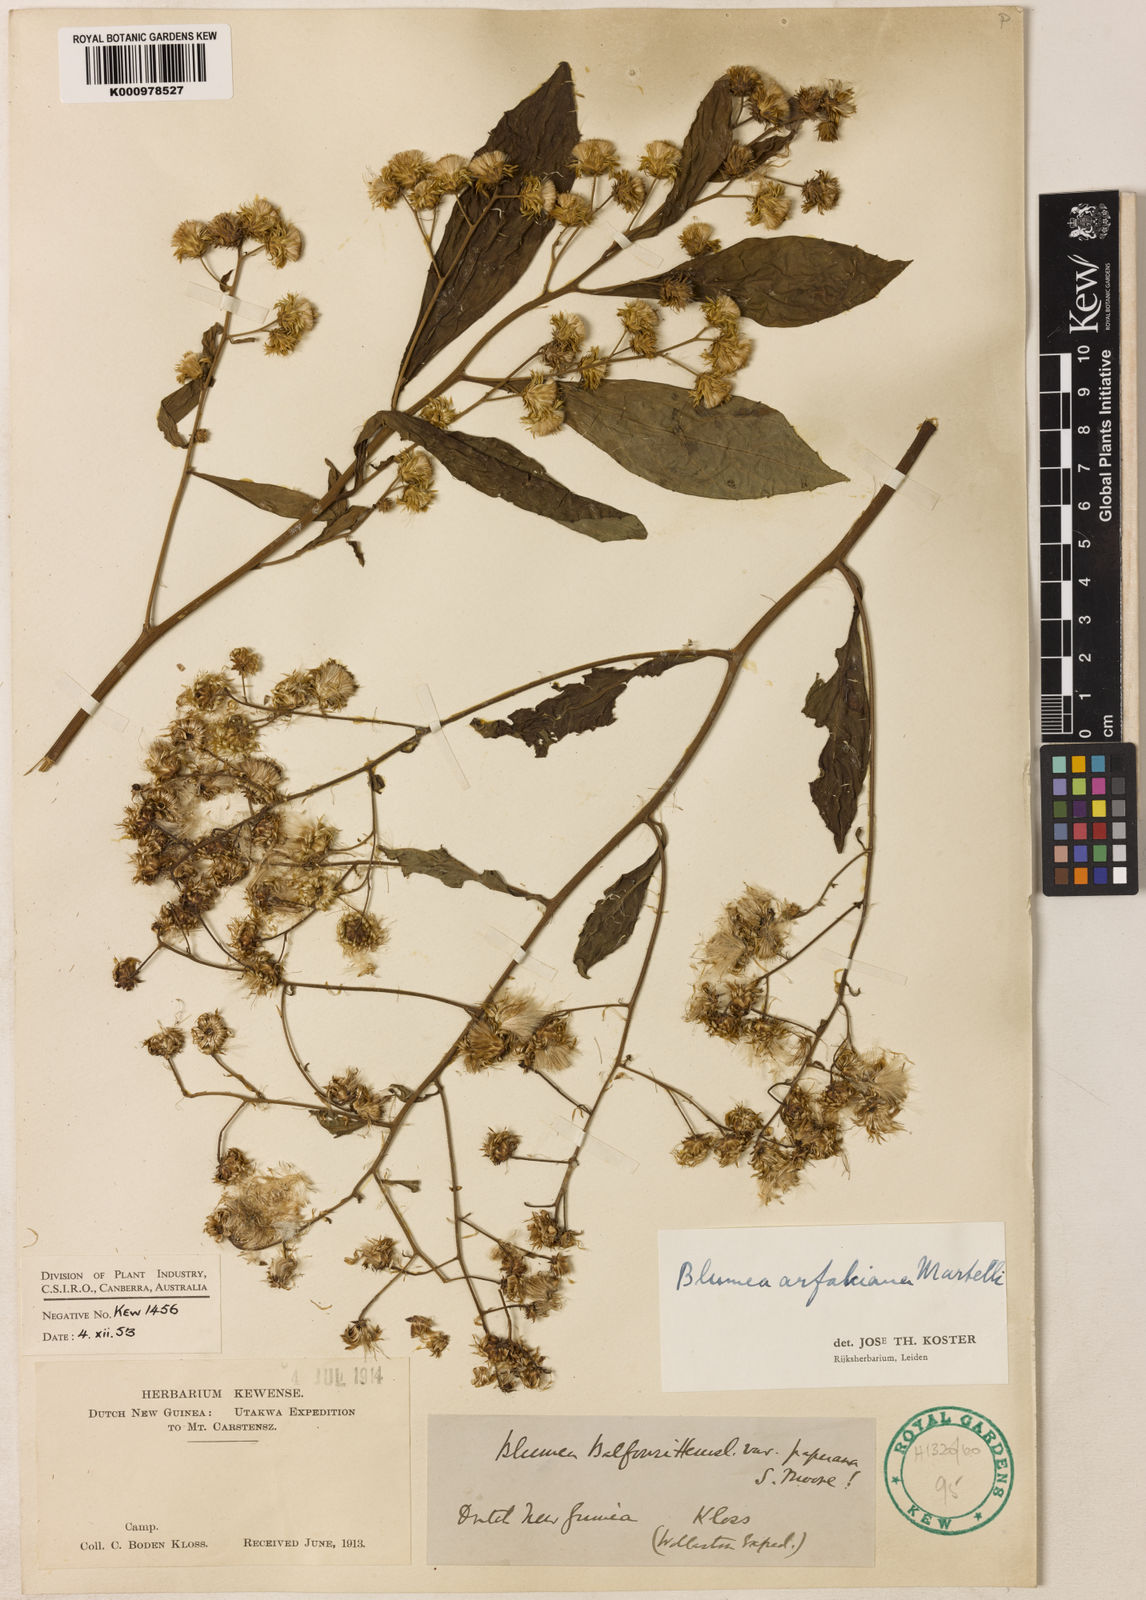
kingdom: Plantae
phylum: Tracheophyta
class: Magnoliopsida
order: Asterales
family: Asteraceae
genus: Blumea
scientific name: Blumea arfakiana
